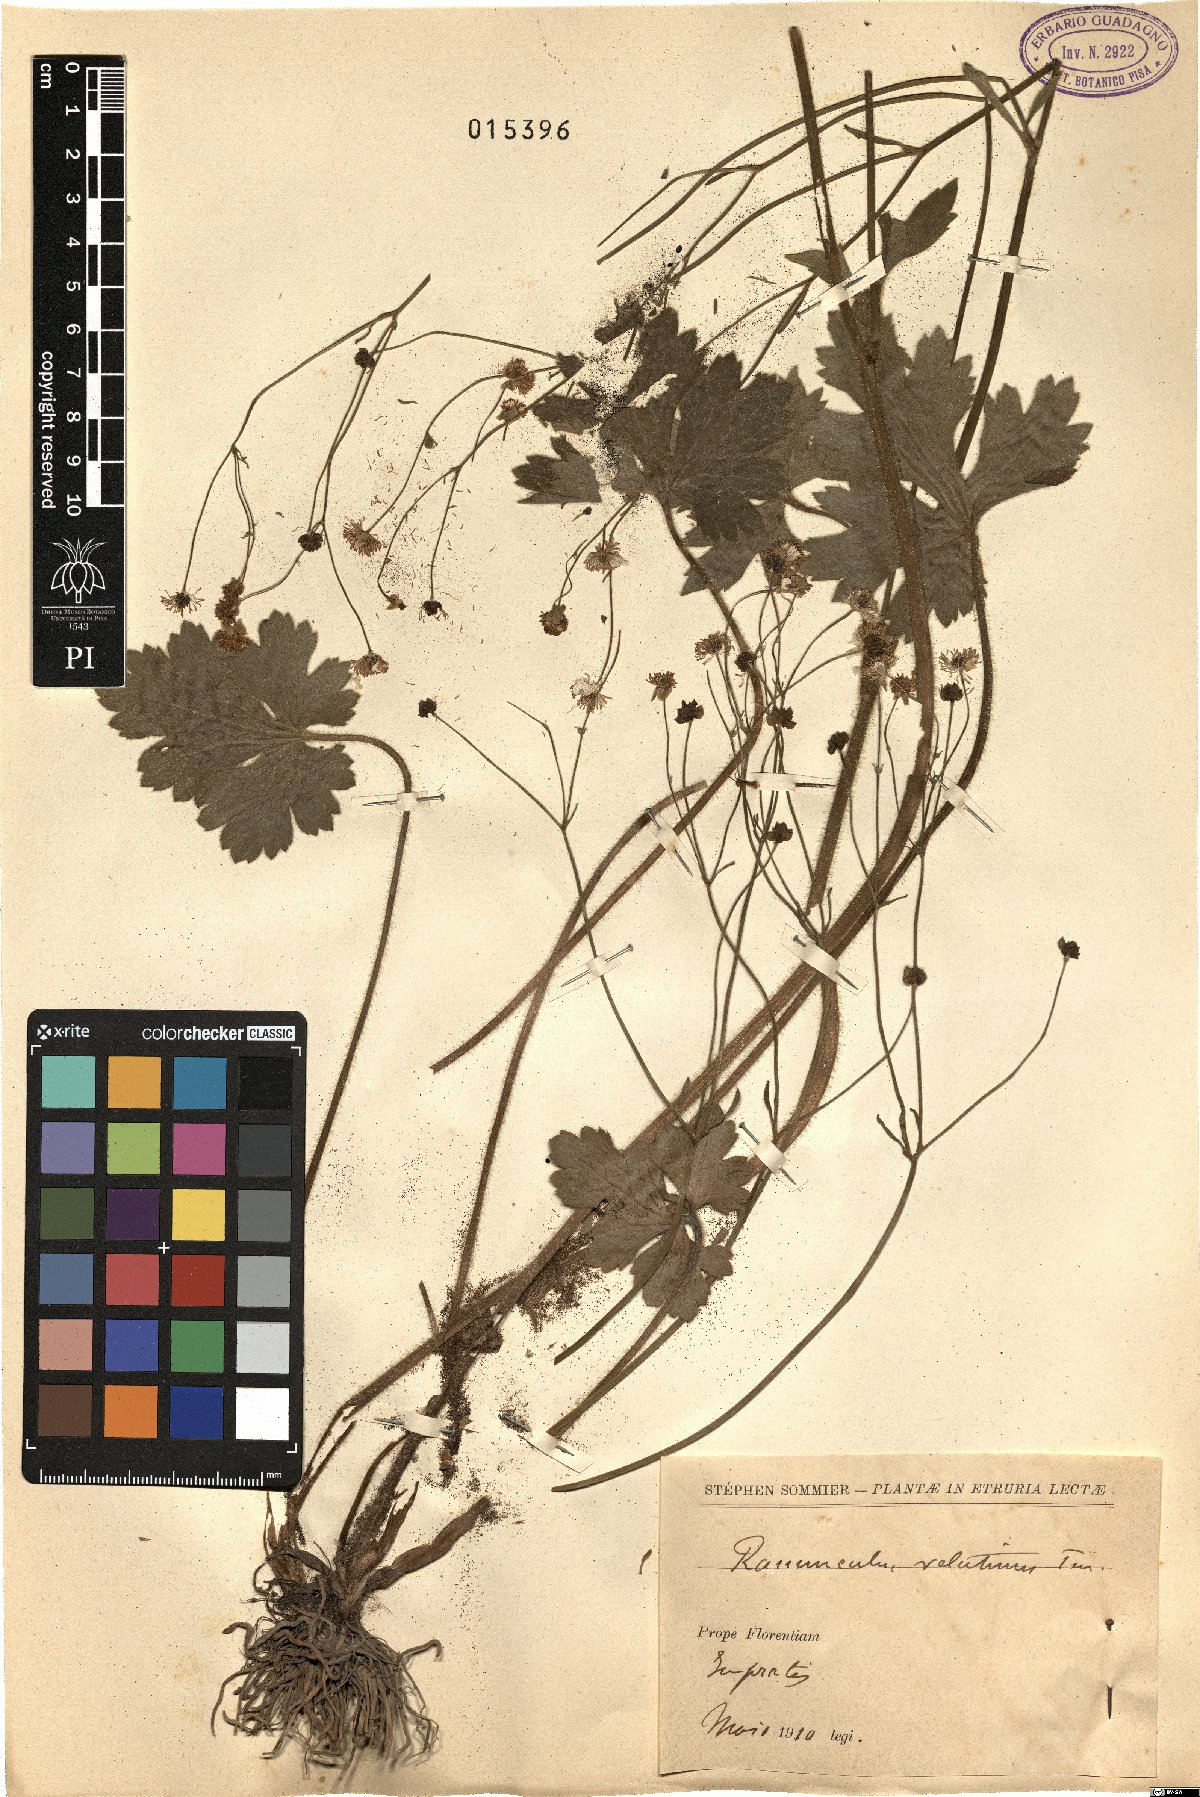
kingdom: Plantae
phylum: Tracheophyta
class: Magnoliopsida
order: Ranunculales
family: Ranunculaceae
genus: Ranunculus
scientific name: Ranunculus velutinus
